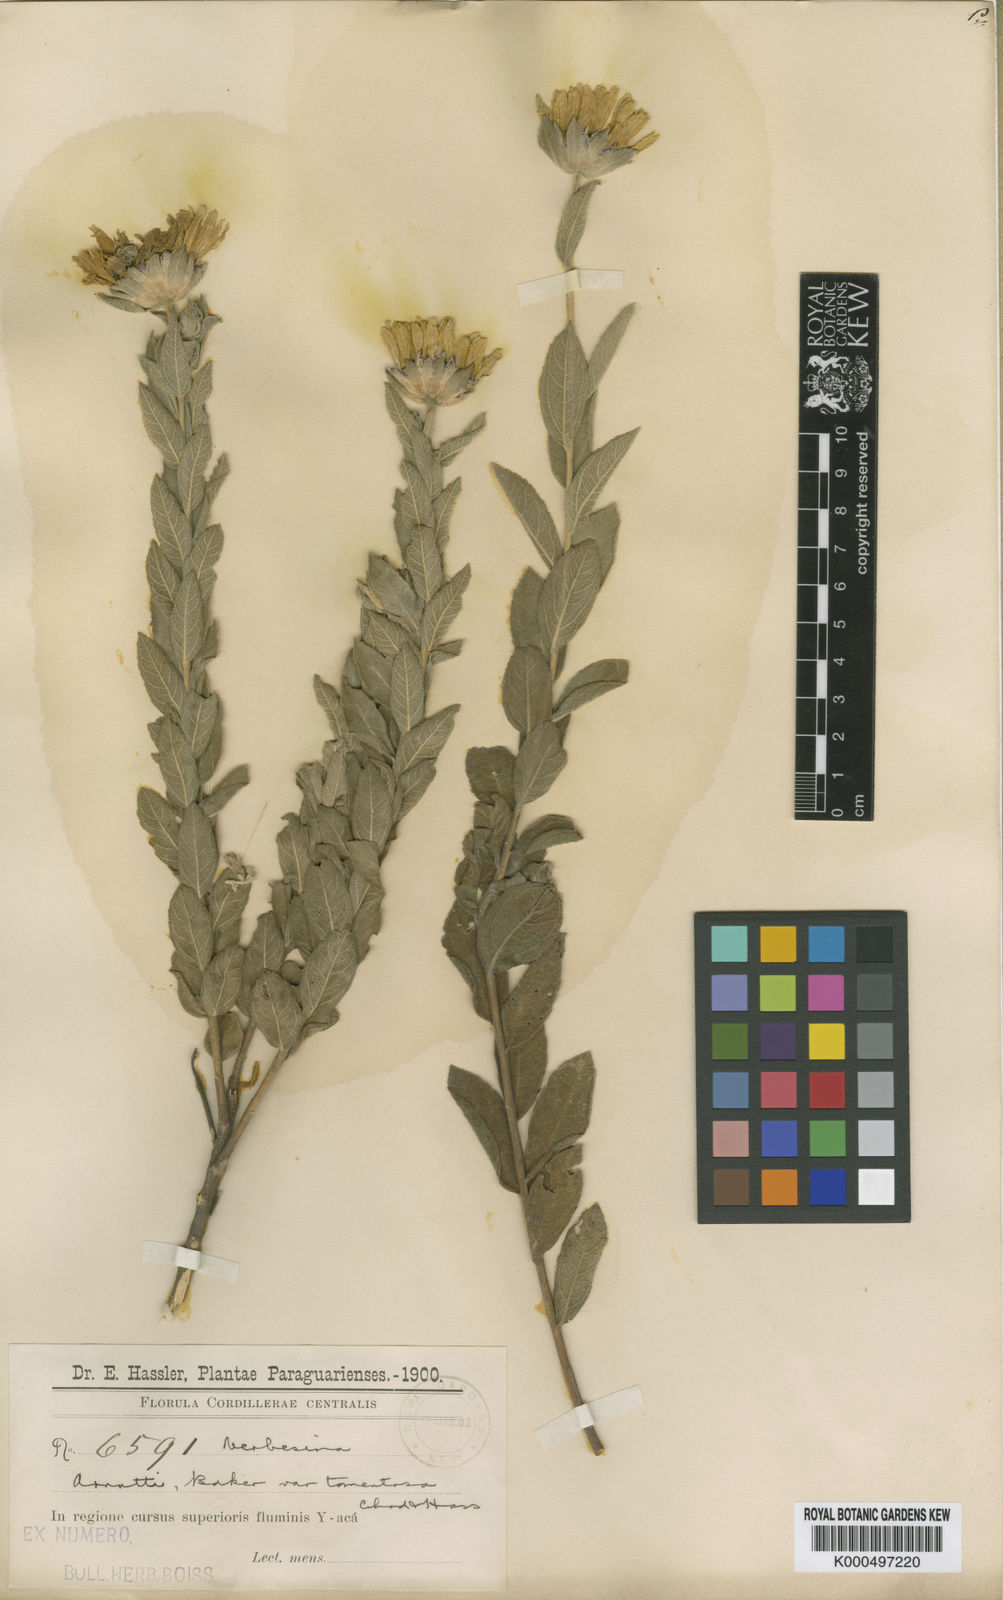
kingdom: Plantae
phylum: Tracheophyta
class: Magnoliopsida
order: Asterales
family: Asteraceae
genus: Dimerostemma
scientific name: Dimerostemma arnottii
